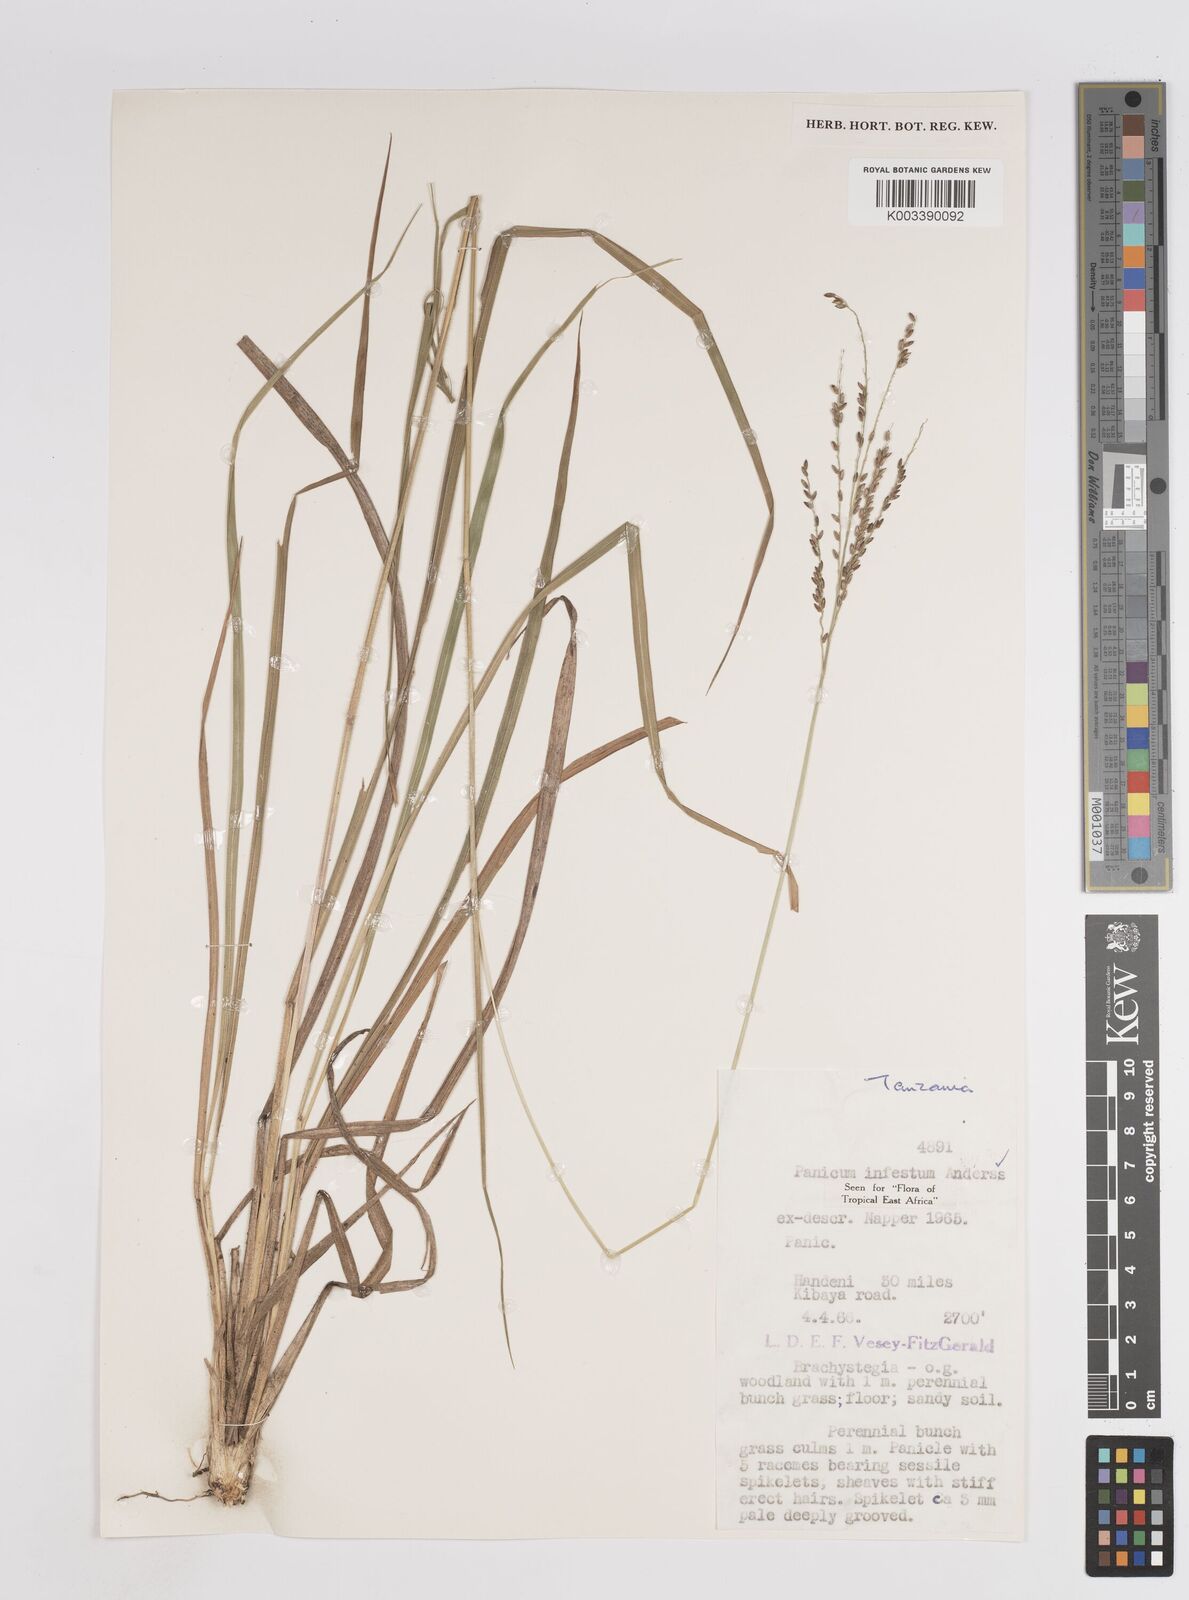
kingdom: Plantae
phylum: Tracheophyta
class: Liliopsida
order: Poales
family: Poaceae
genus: Megathyrsus
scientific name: Megathyrsus infestus
